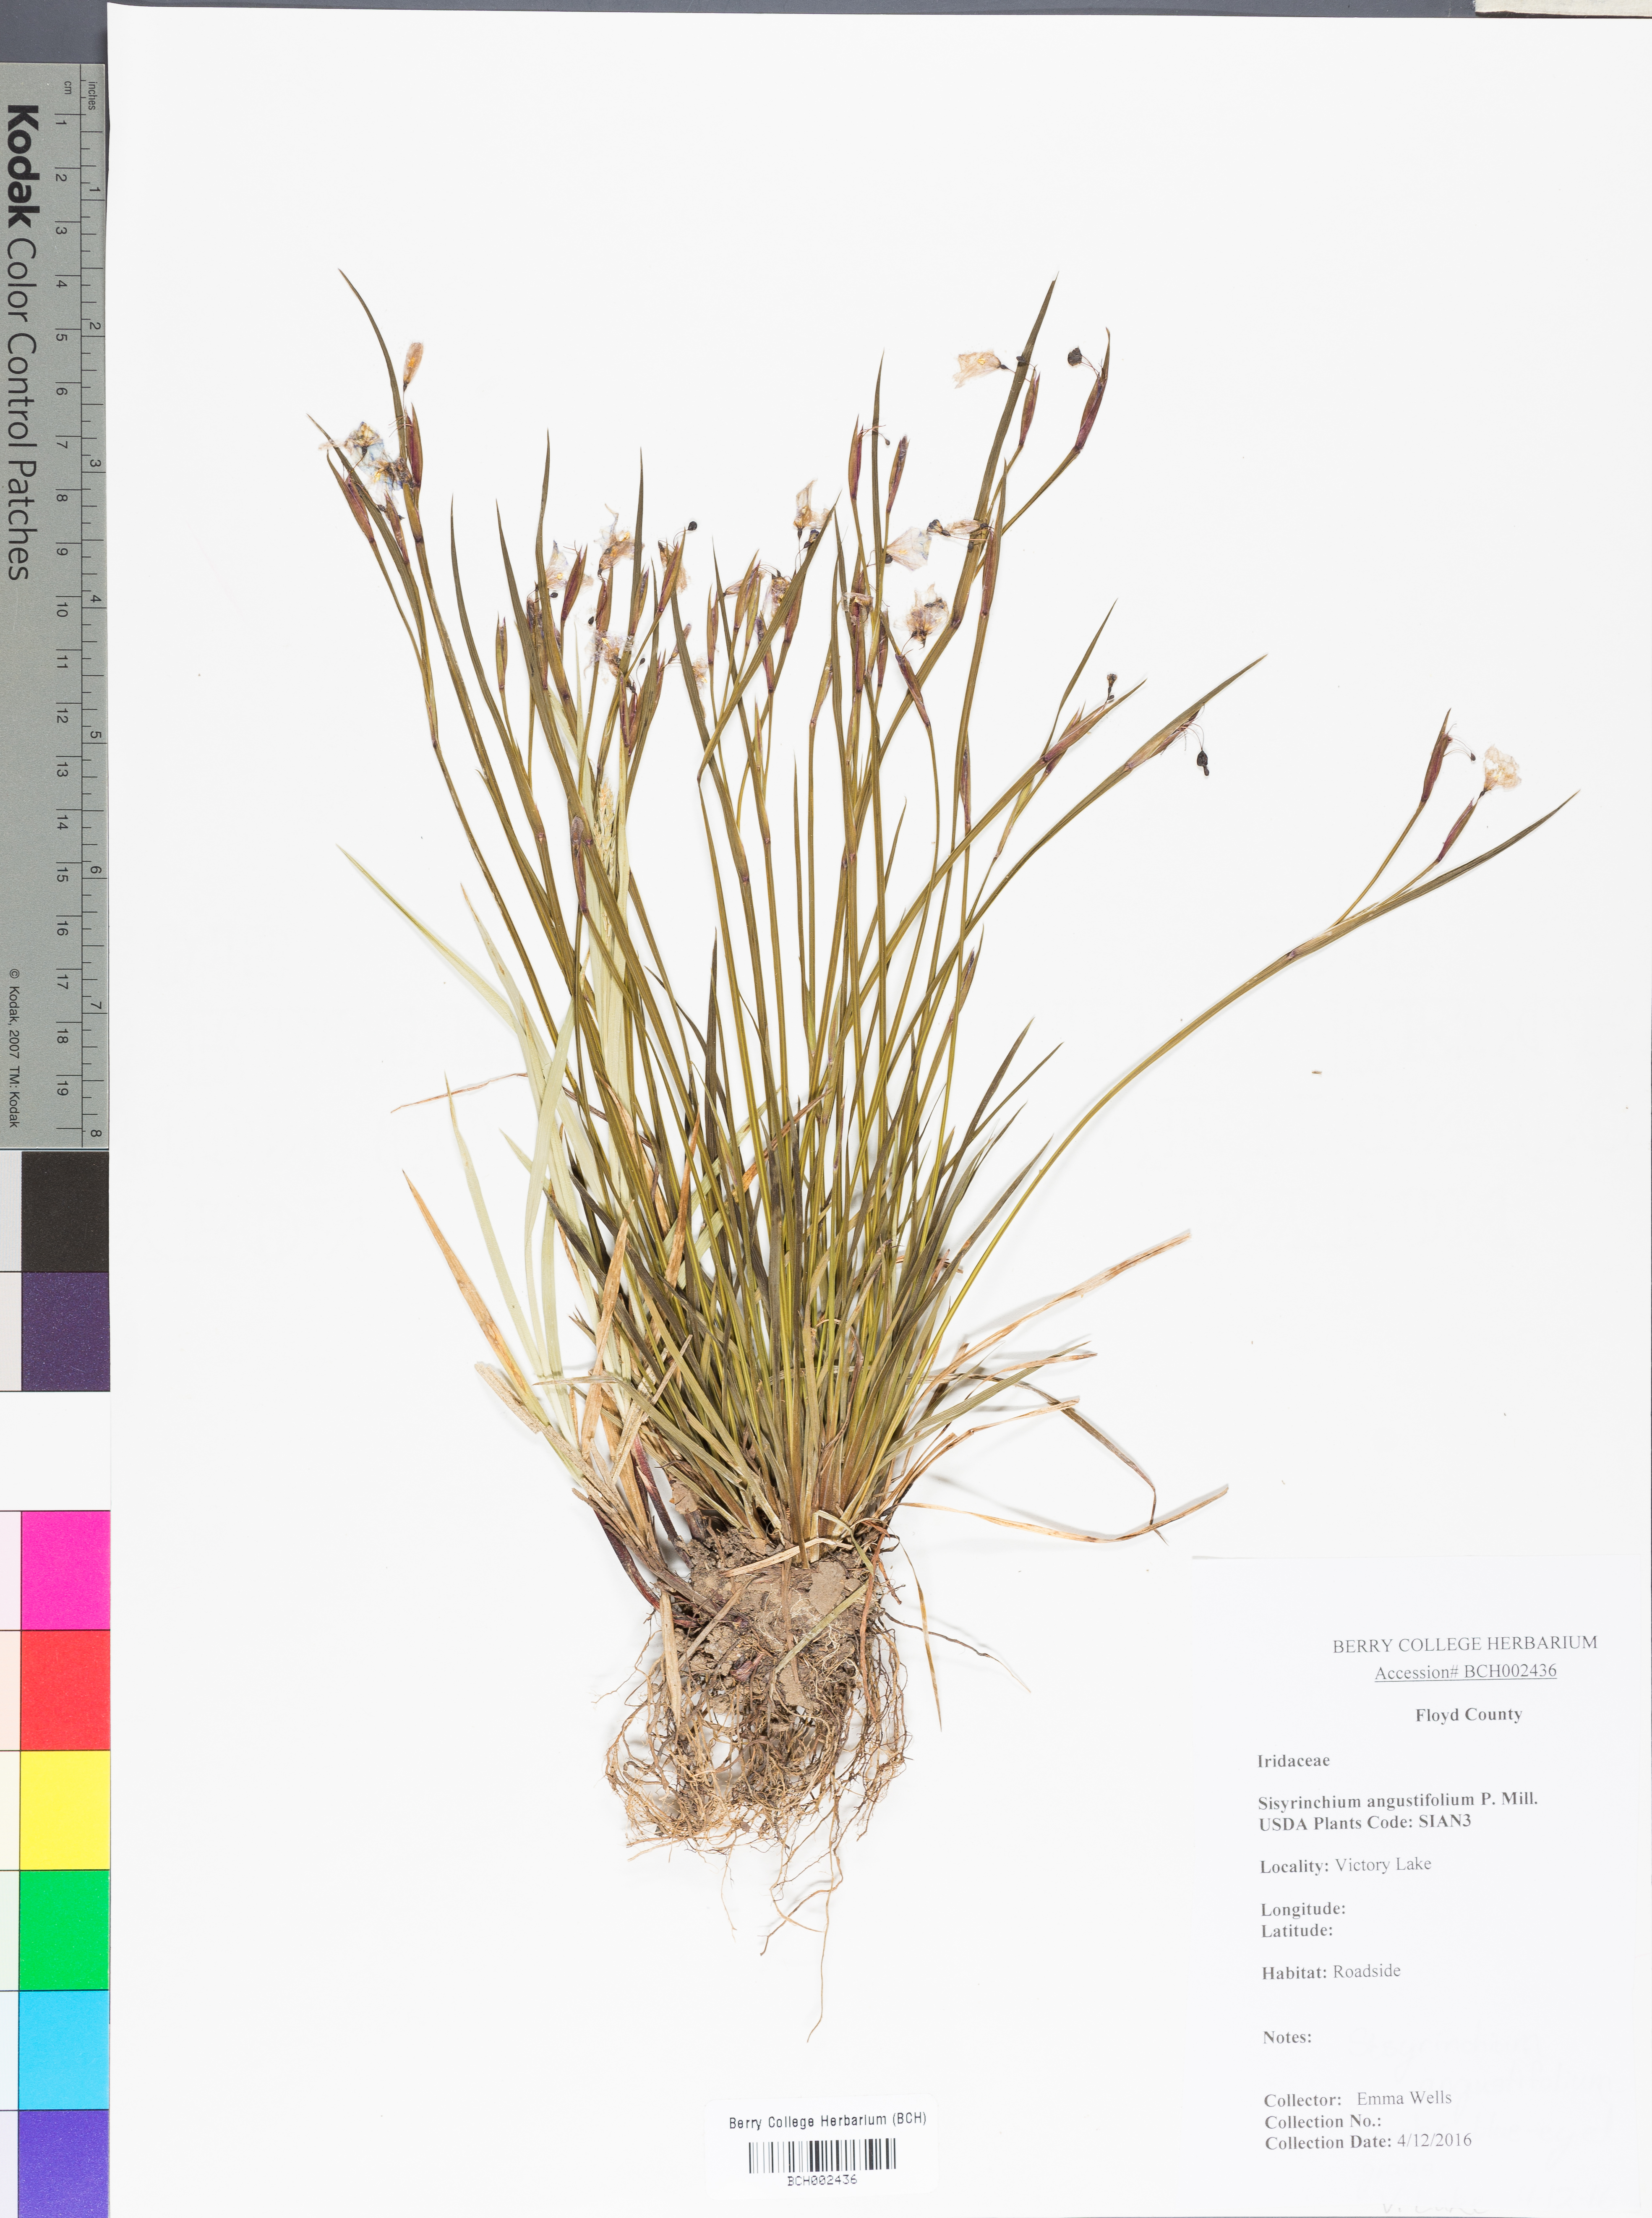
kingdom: Plantae
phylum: Tracheophyta
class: Liliopsida
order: Asparagales
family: Iridaceae
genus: Sisyrinchium
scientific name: Sisyrinchium angustifolium
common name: Narrow-leaf blue-eyed-grass
